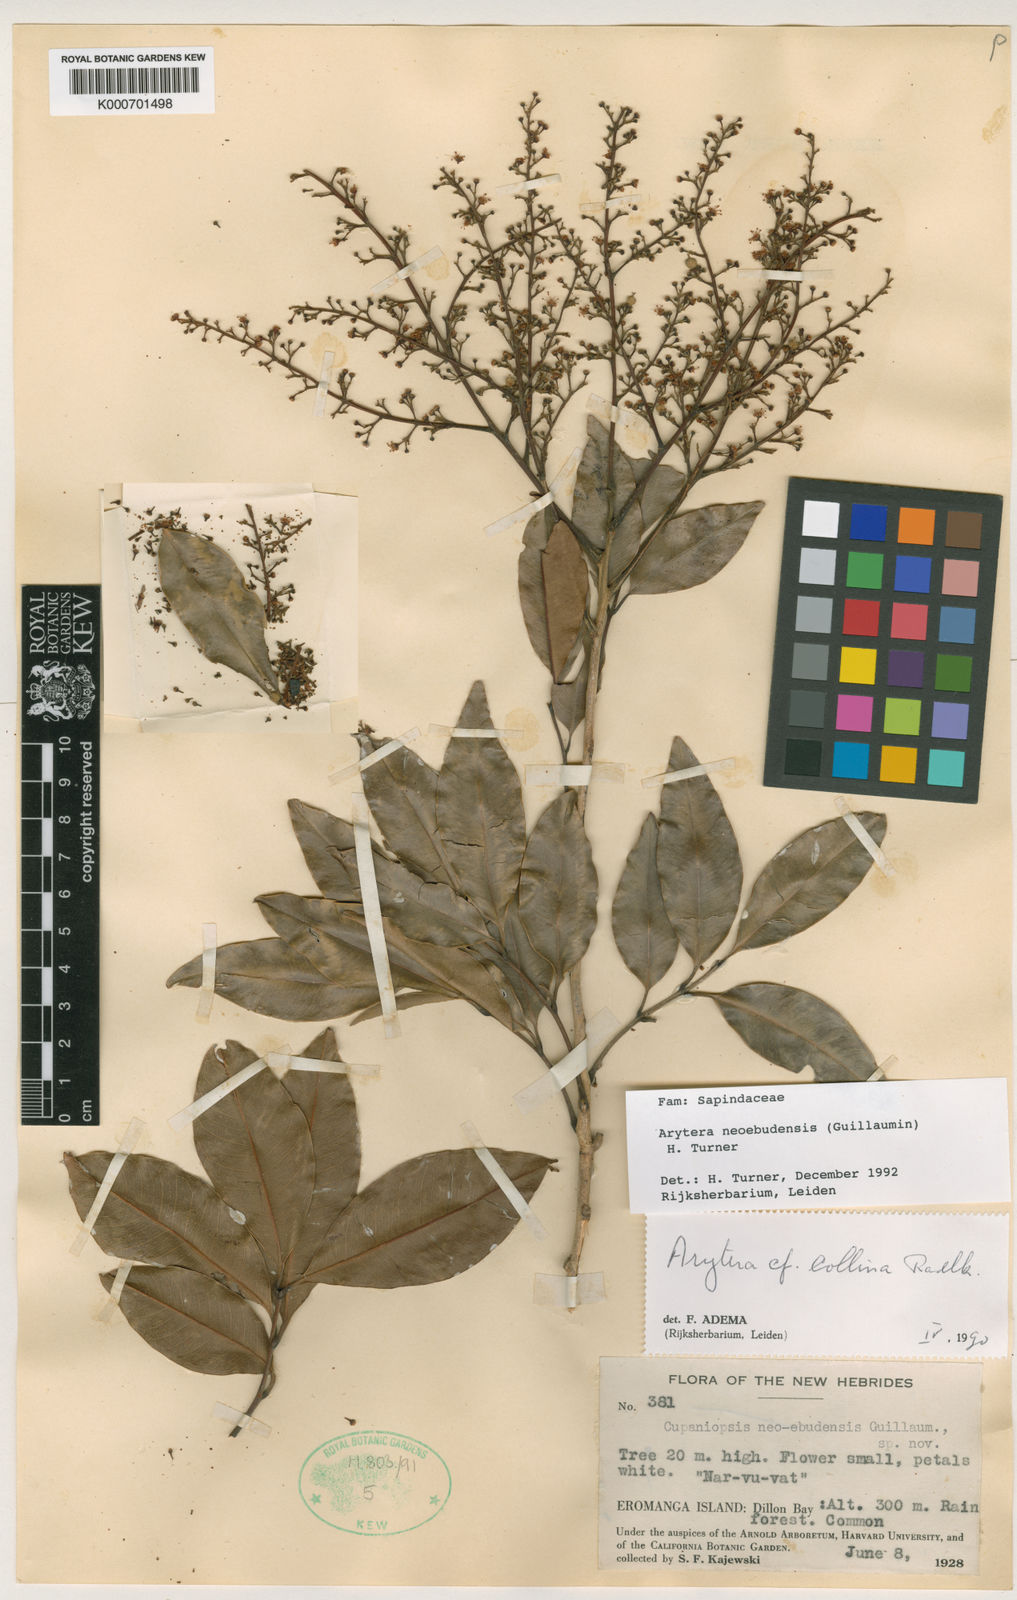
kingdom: Plantae
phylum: Tracheophyta
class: Magnoliopsida
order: Sapindales
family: Sapindaceae
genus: Neoarytera
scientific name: Neoarytera neoebudensis
